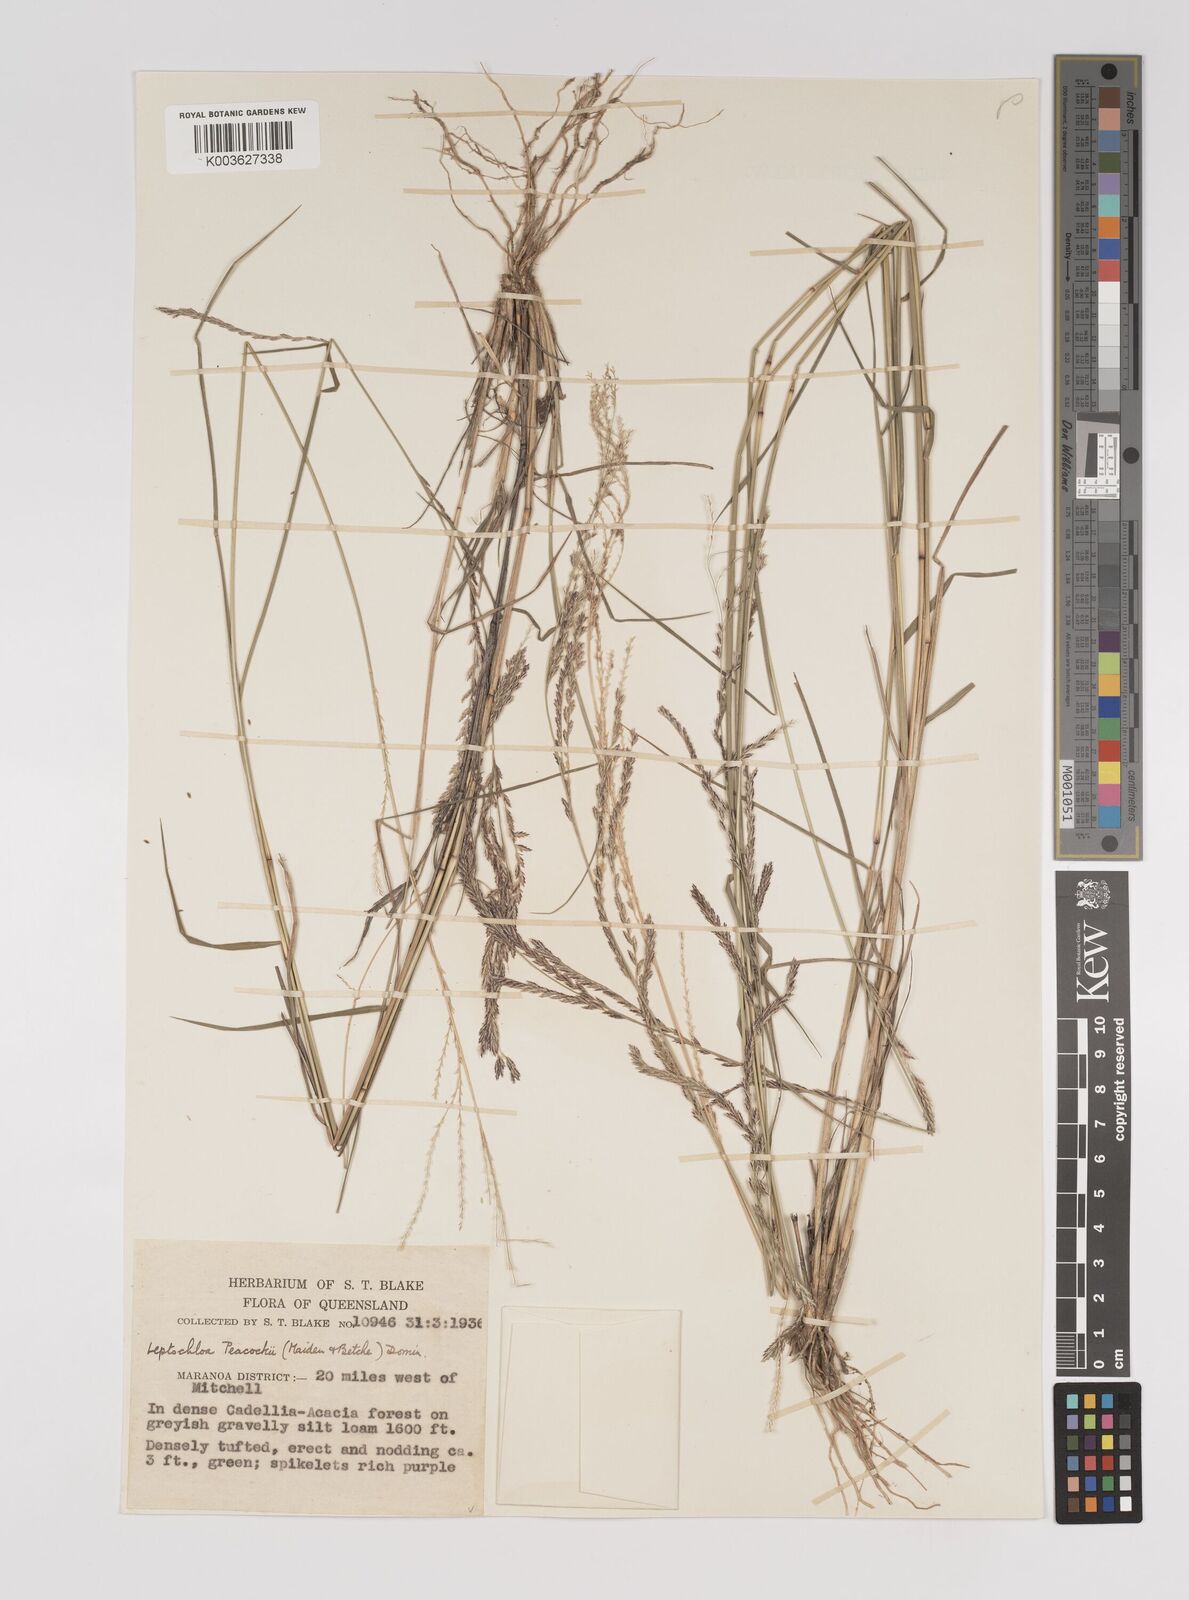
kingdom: Plantae
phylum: Tracheophyta
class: Liliopsida
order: Poales
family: Poaceae
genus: Leptochloa
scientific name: Leptochloa decipiens
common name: Australian sprangletop
